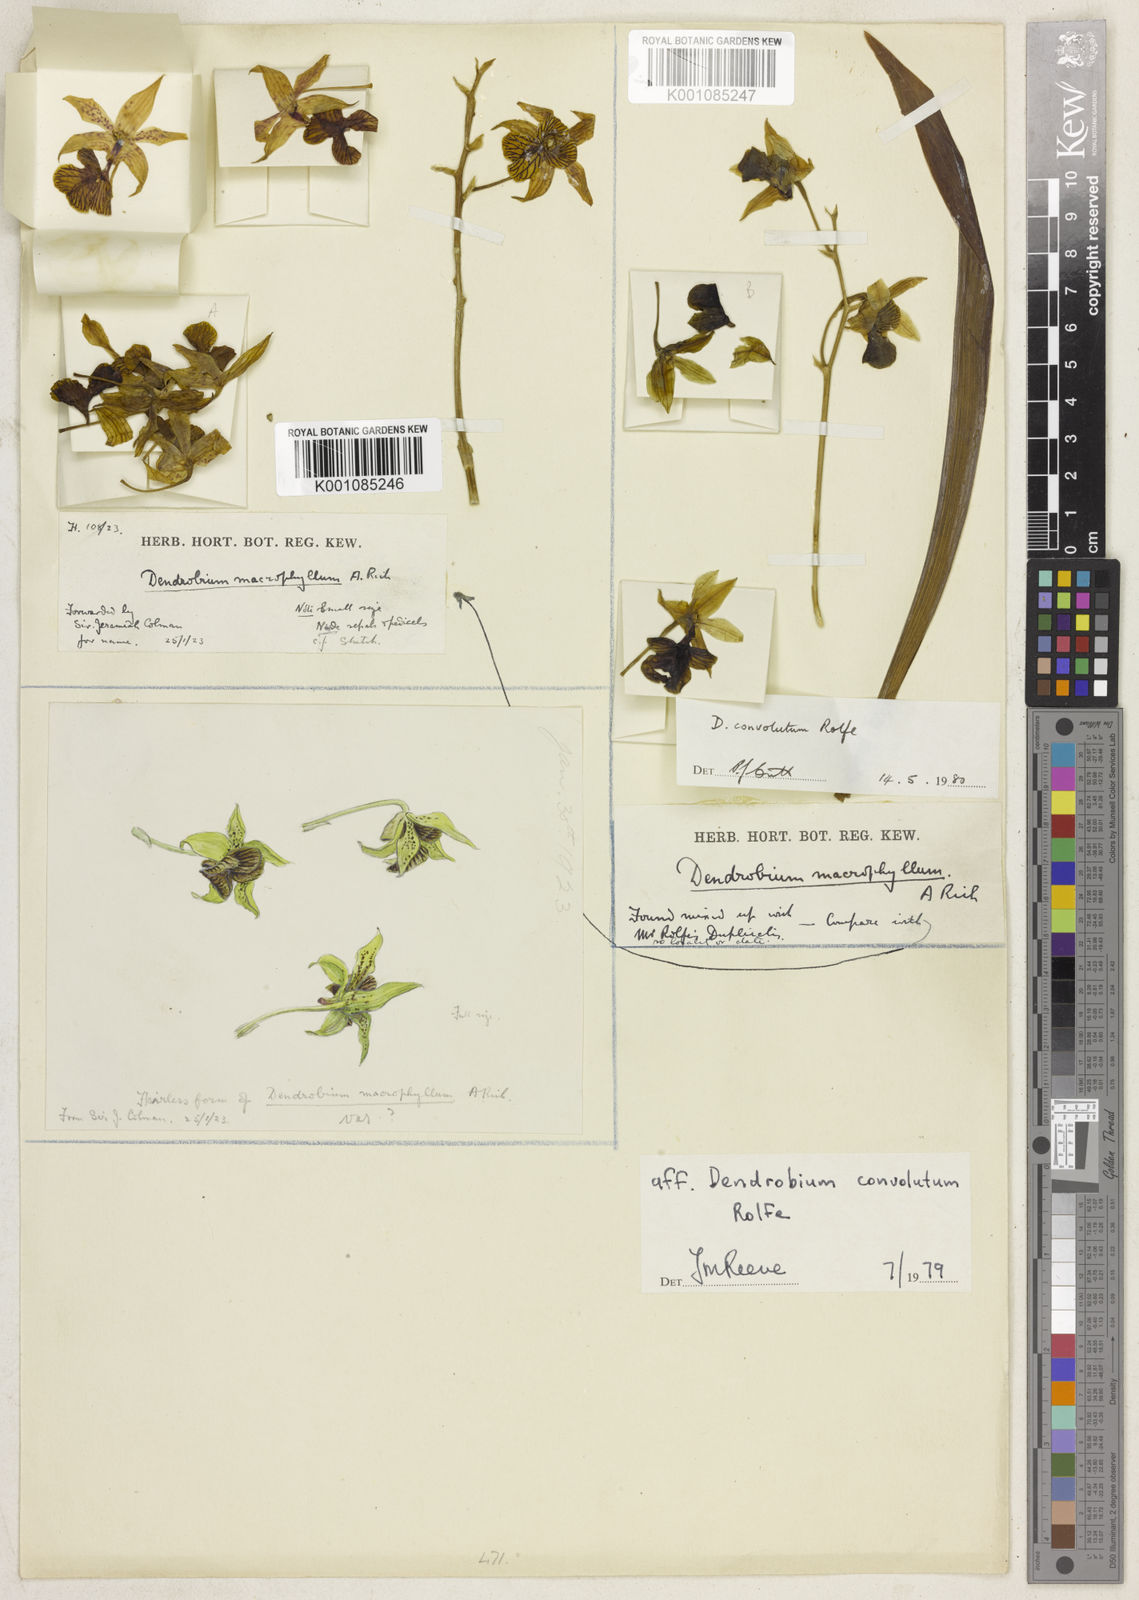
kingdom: Plantae
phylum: Tracheophyta
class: Liliopsida
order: Asparagales
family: Orchidaceae
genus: Dendrobium
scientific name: Dendrobium convolutum
